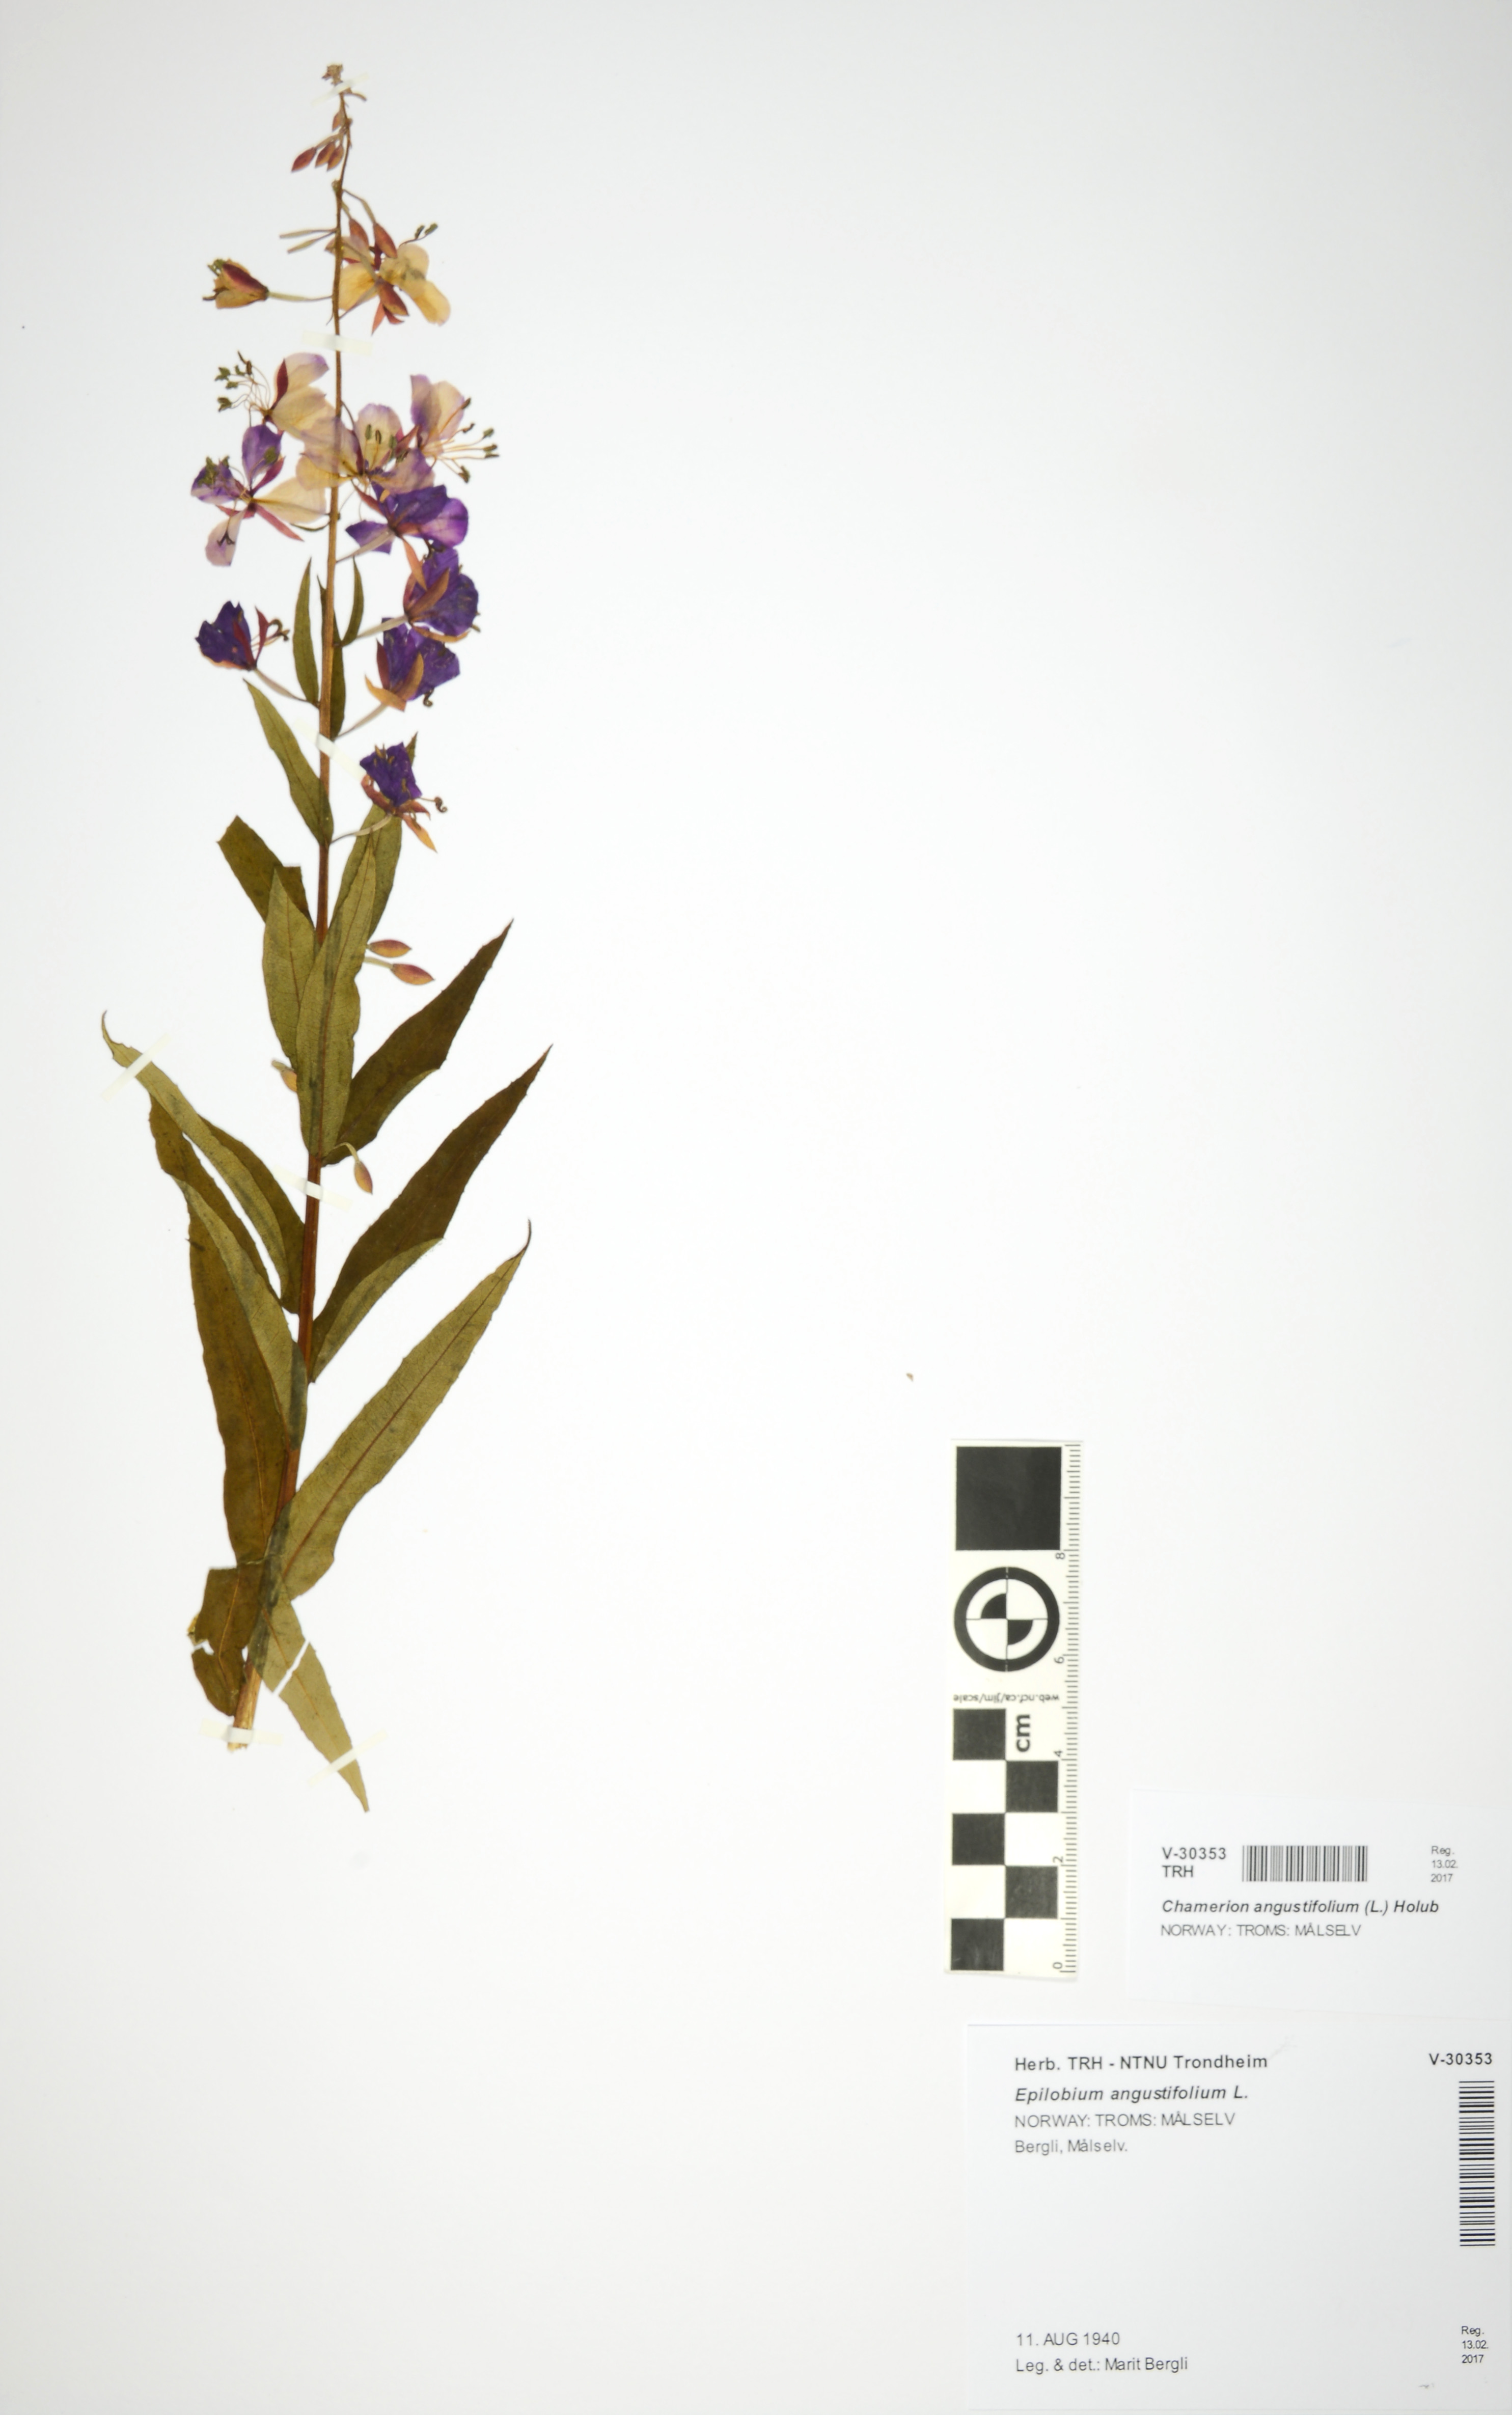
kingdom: Plantae
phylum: Tracheophyta
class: Magnoliopsida
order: Myrtales
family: Onagraceae
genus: Chamaenerion
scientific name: Chamaenerion angustifolium
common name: Fireweed
